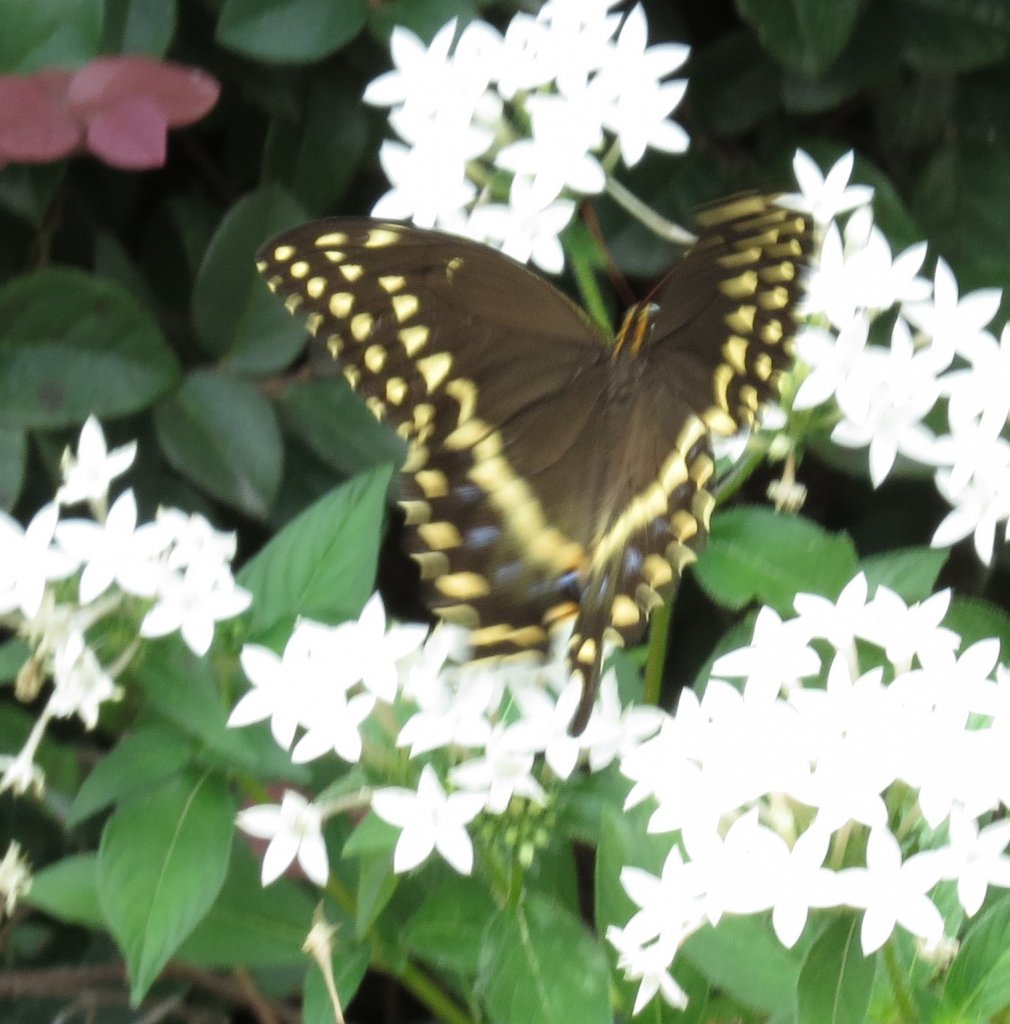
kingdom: Animalia
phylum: Arthropoda
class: Insecta
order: Lepidoptera
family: Papilionidae
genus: Pterourus
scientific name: Pterourus palamedes
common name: Palamedes Swallowtail
